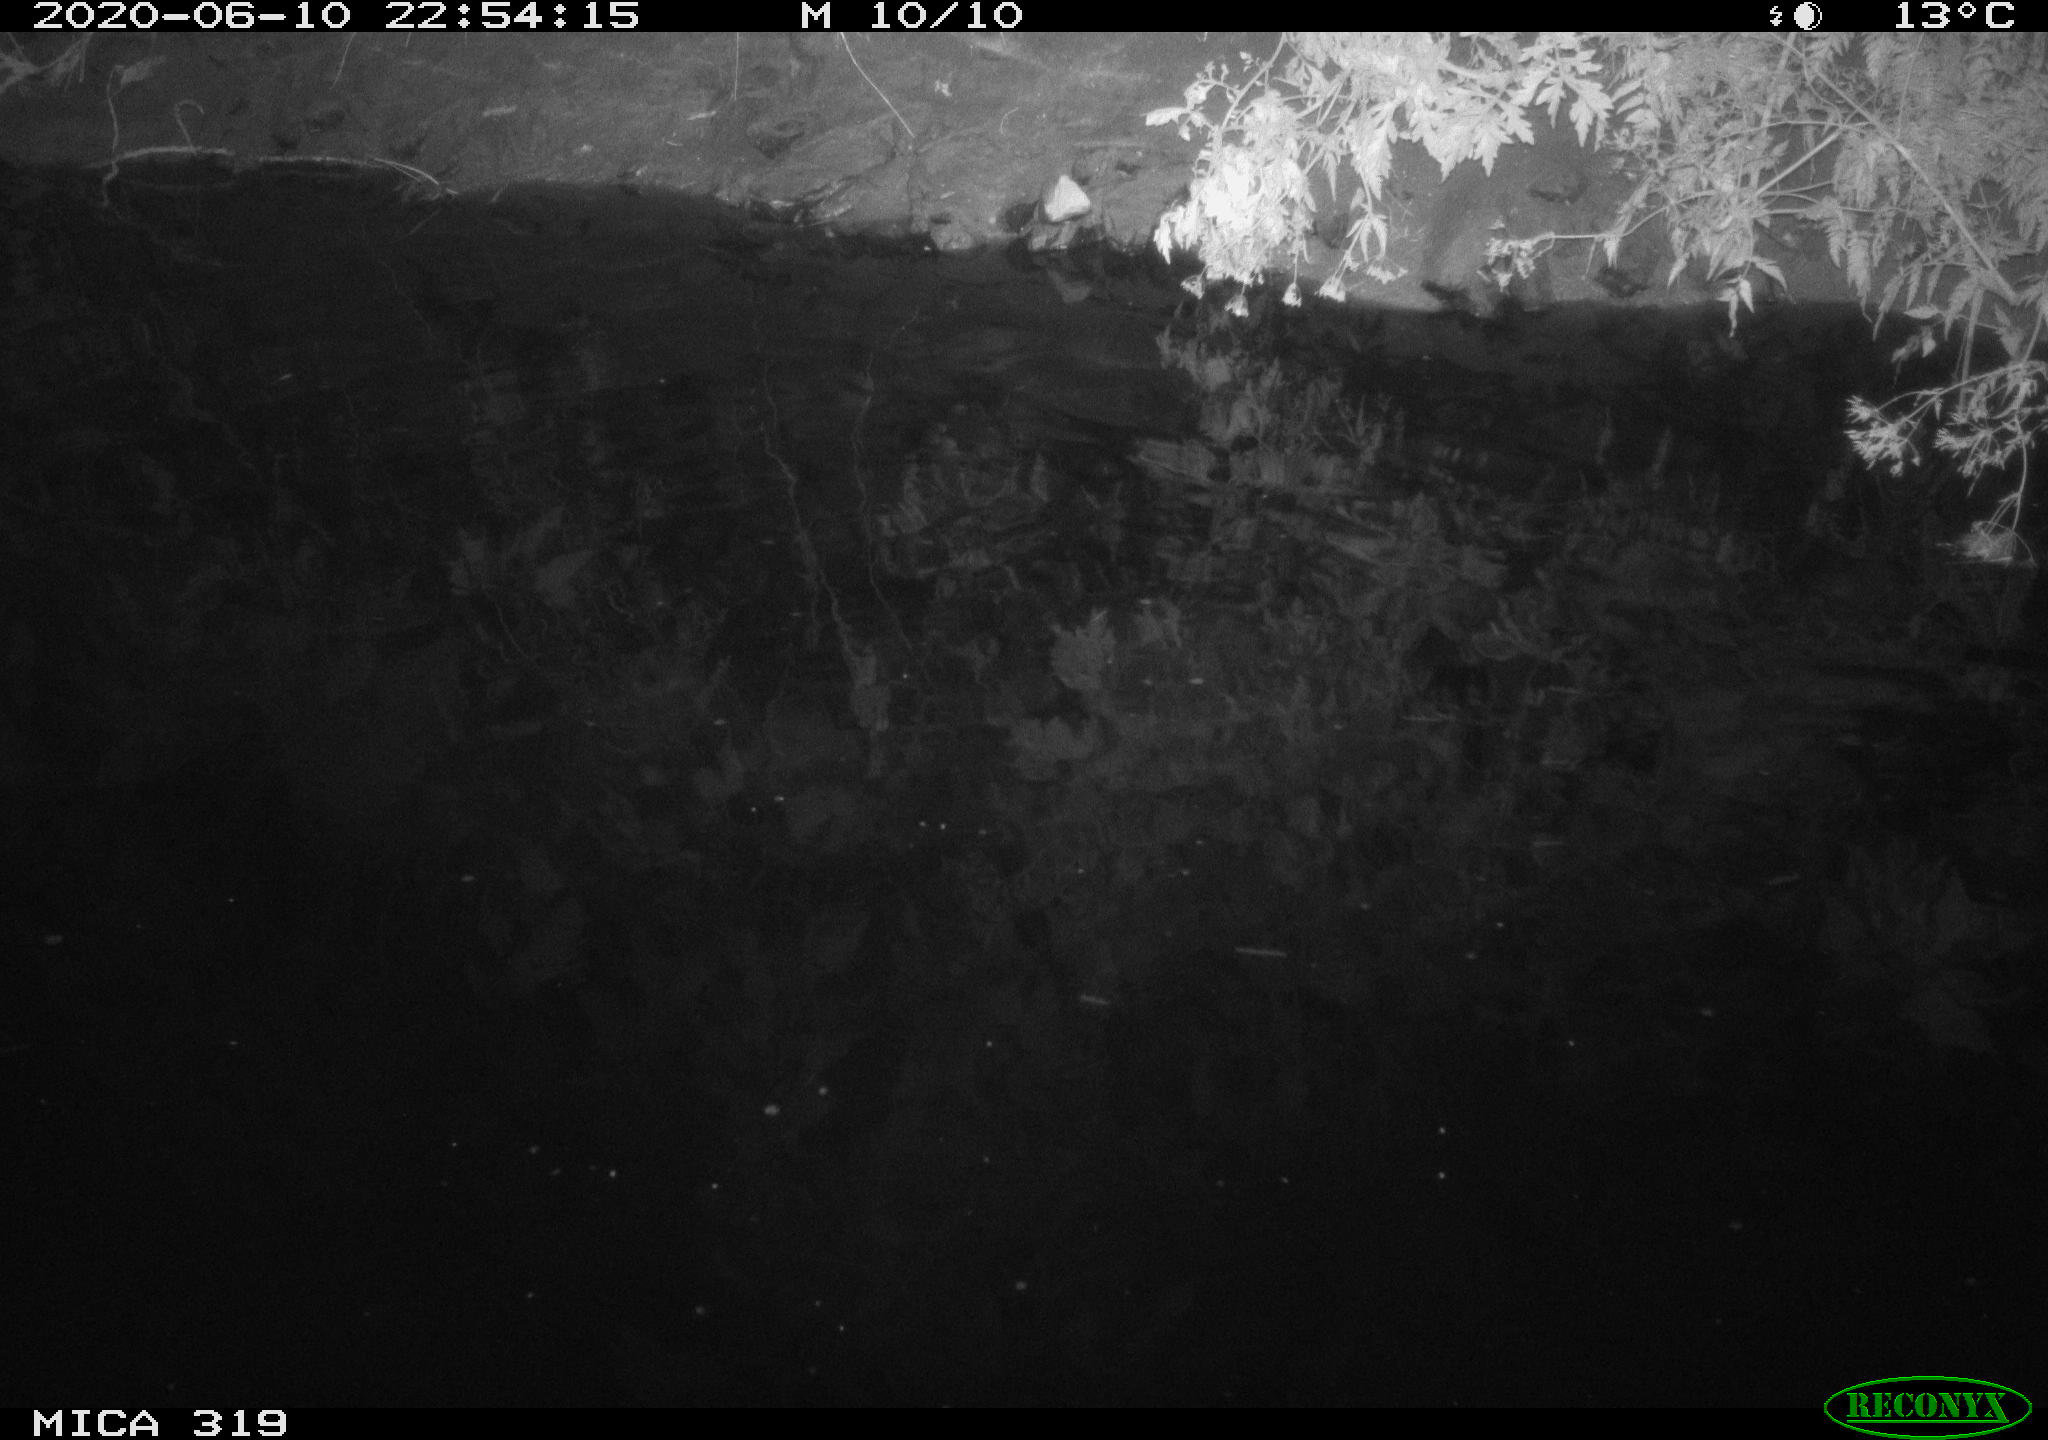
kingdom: Animalia
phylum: Chordata
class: Aves
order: Anseriformes
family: Anatidae
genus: Anas
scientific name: Anas platyrhynchos
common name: Mallard
